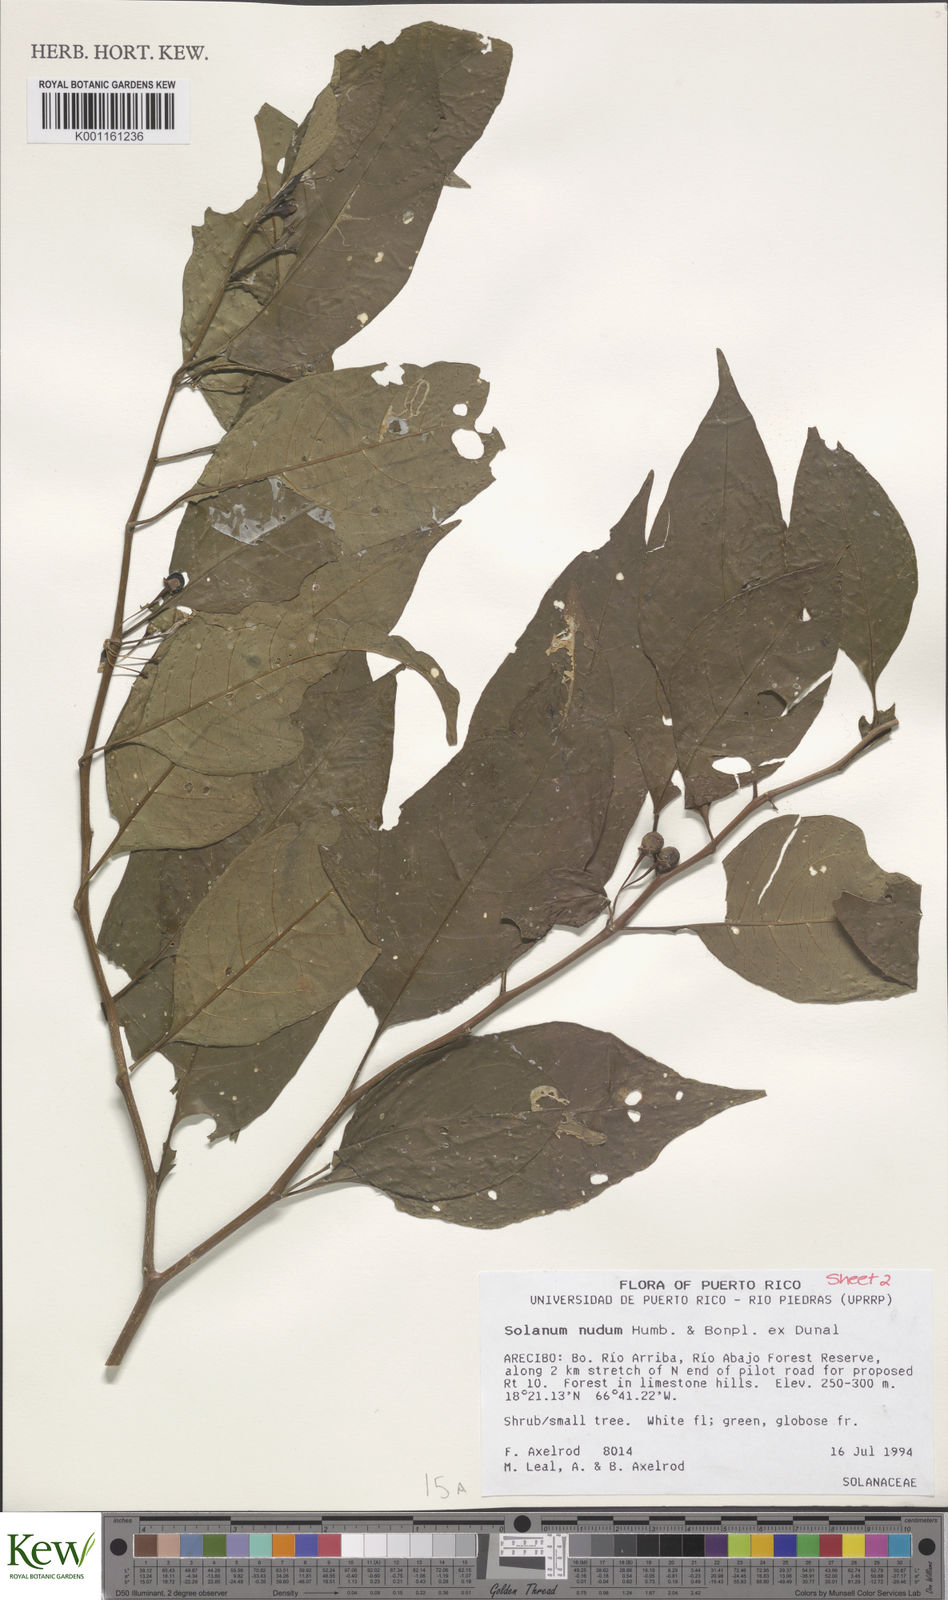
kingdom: Plantae
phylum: Tracheophyta
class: Magnoliopsida
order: Solanales
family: Solanaceae
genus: Solanum
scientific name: Solanum nudum
